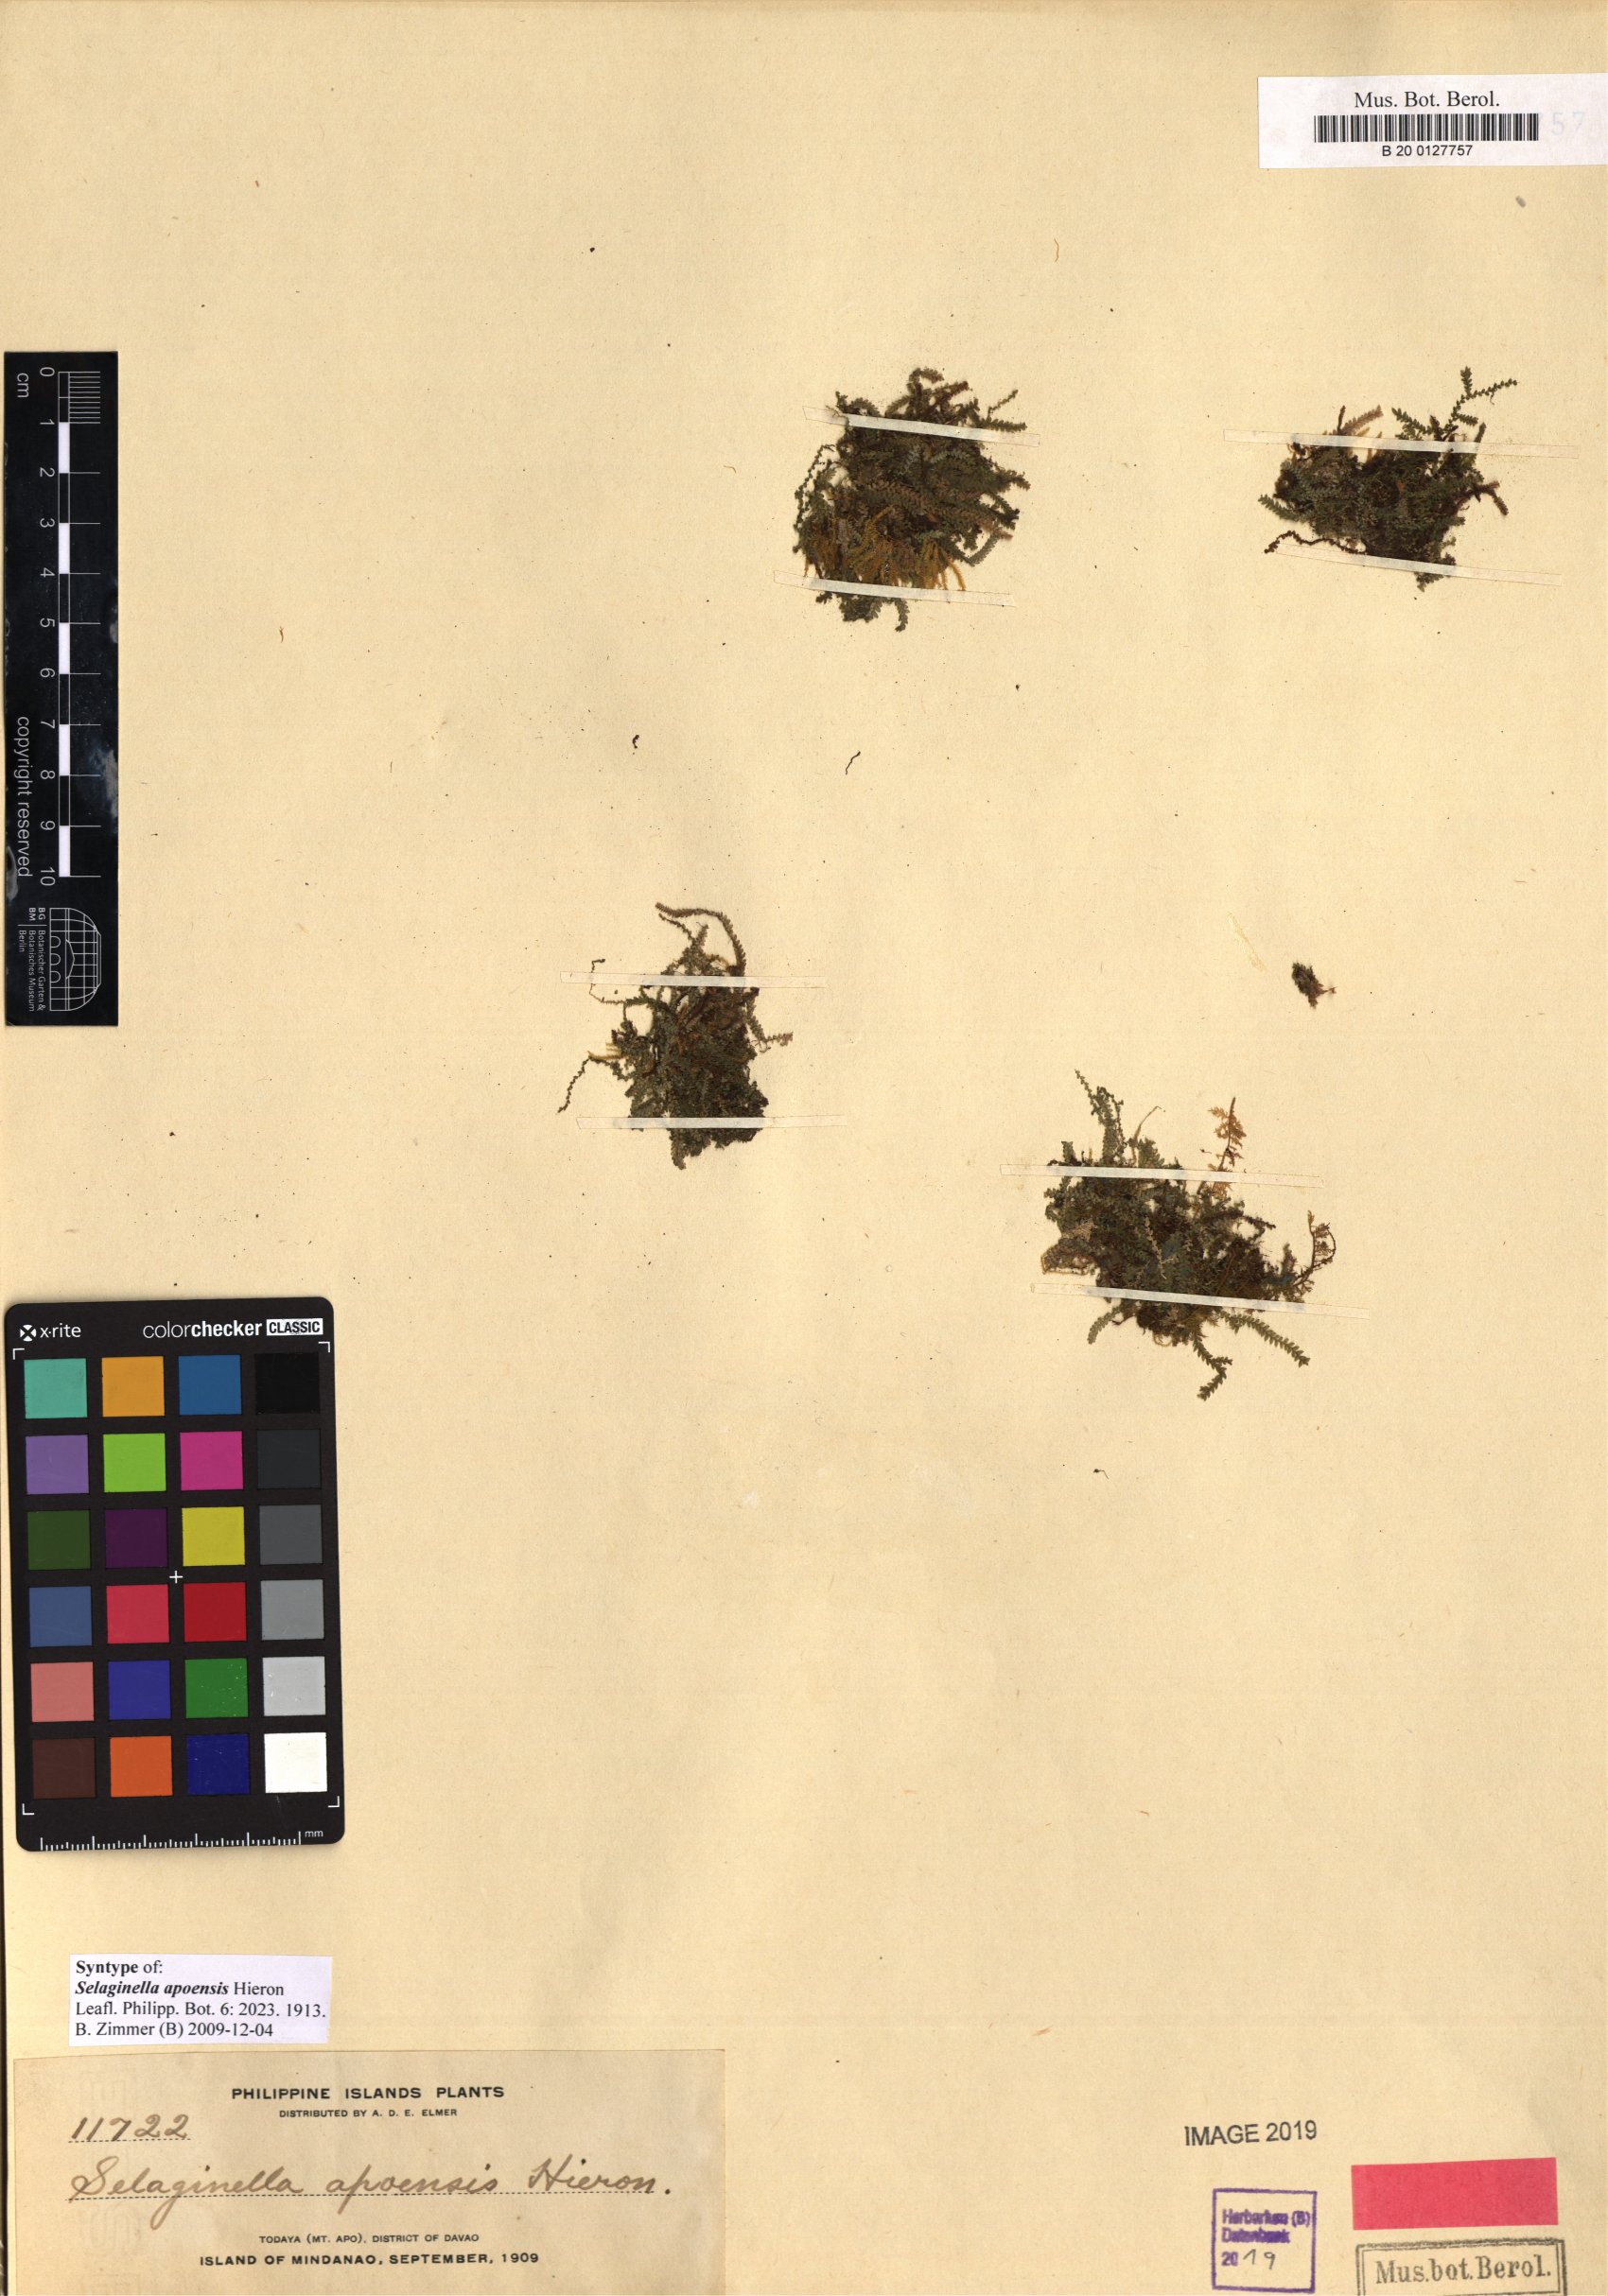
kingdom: Plantae
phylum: Tracheophyta
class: Lycopodiopsida
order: Selaginellales
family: Selaginellaceae
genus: Selaginella
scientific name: Selaginella apoensis
